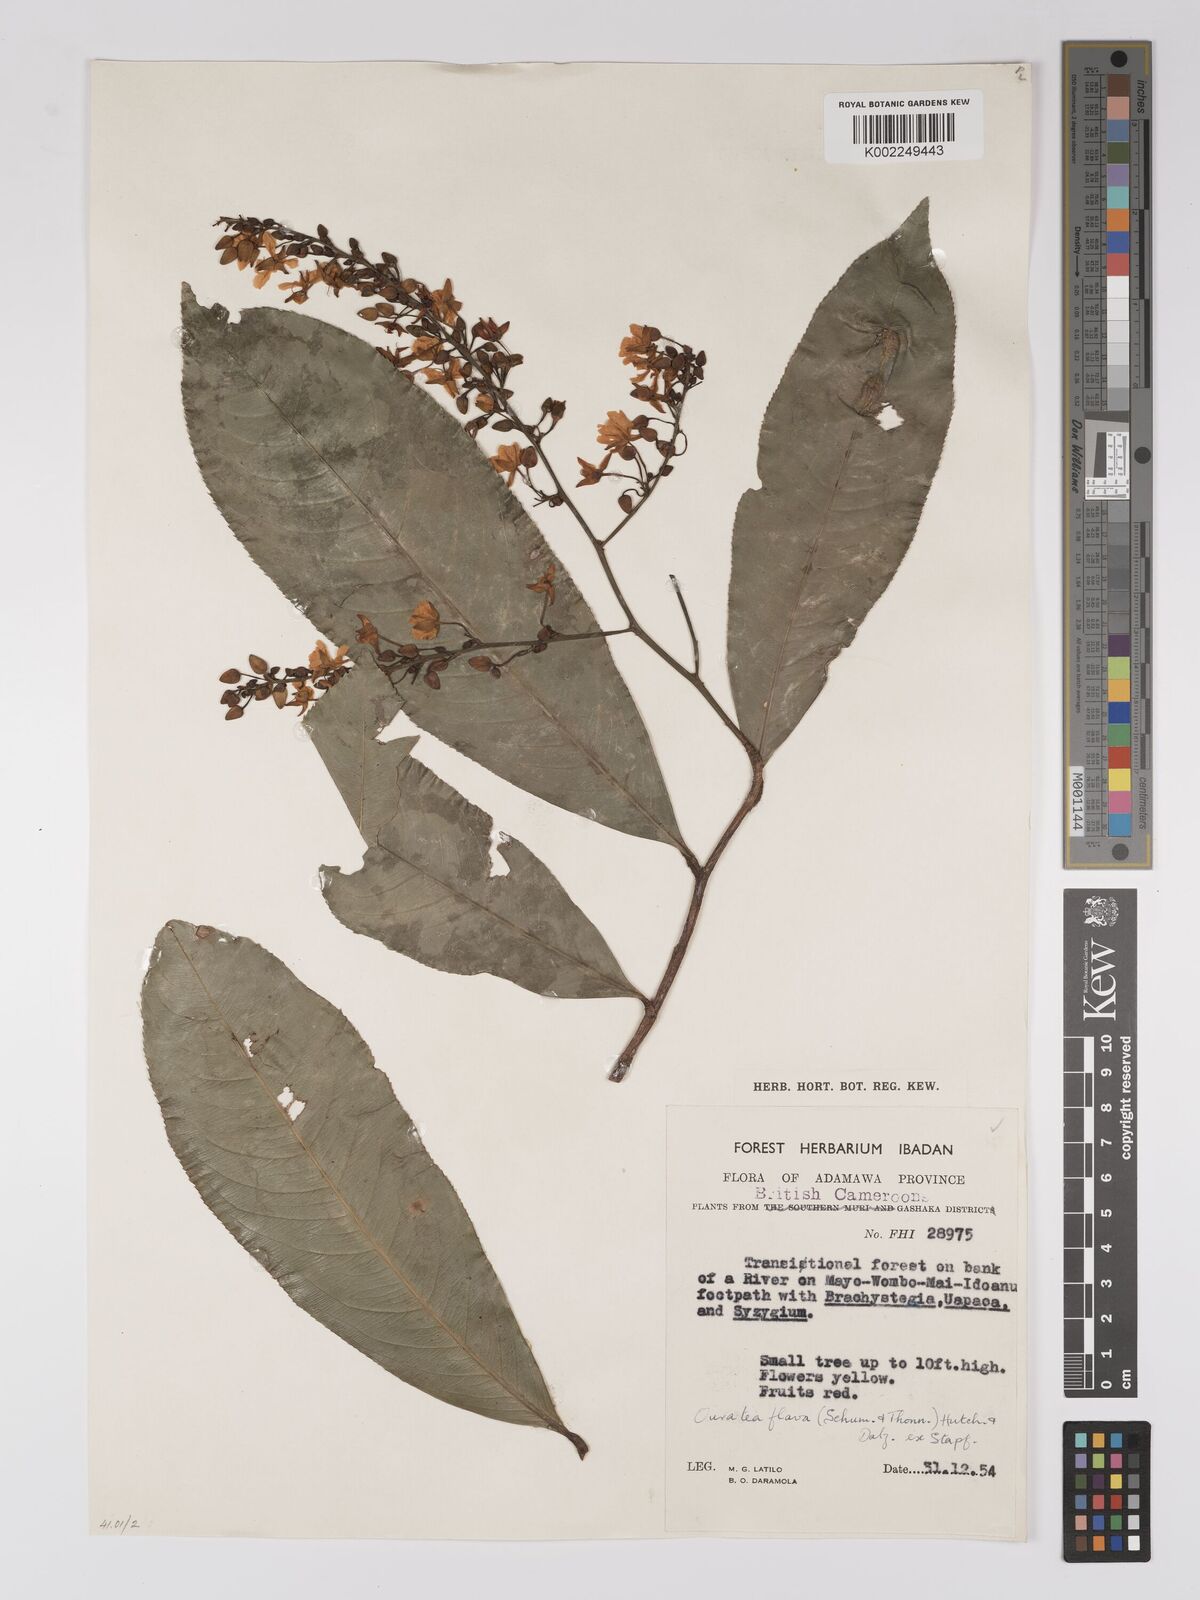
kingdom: Plantae
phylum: Tracheophyta
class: Magnoliopsida
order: Malpighiales
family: Ochnaceae
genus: Campylospermum
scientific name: Campylospermum flavum
